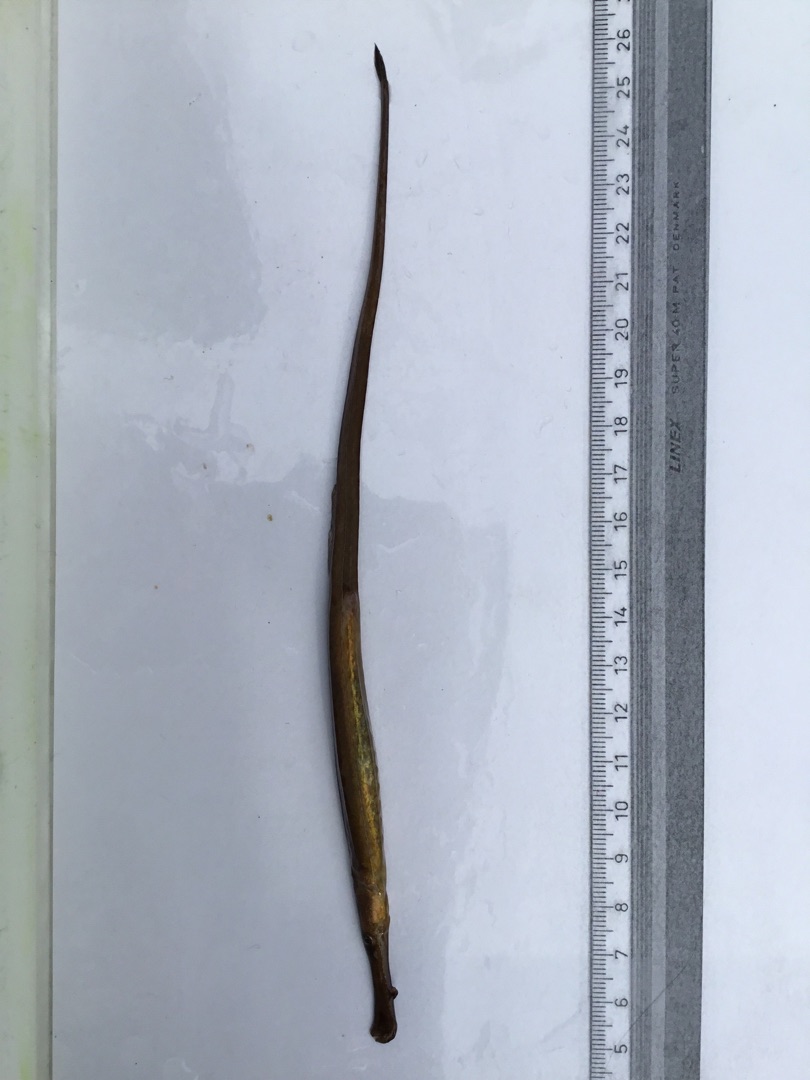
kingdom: Animalia
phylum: Chordata
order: Syngnathiformes
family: Syngnathidae
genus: Syngnathus
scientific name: Syngnathus typhle
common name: Almindelig tangnål
